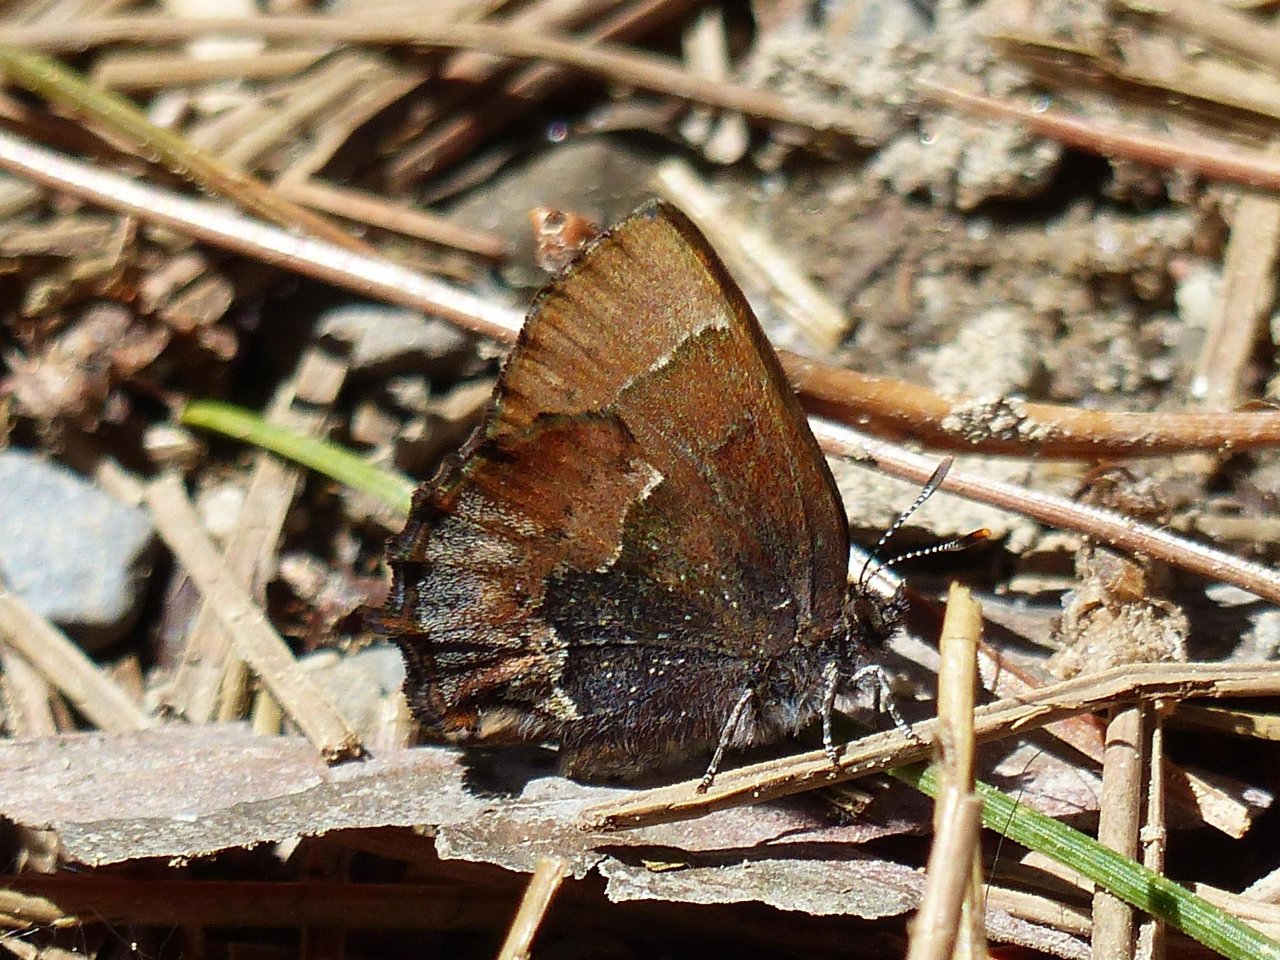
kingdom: Animalia
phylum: Arthropoda
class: Insecta
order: Lepidoptera
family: Lycaenidae
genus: Incisalia
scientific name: Incisalia henrici
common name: Henry's Elfin
